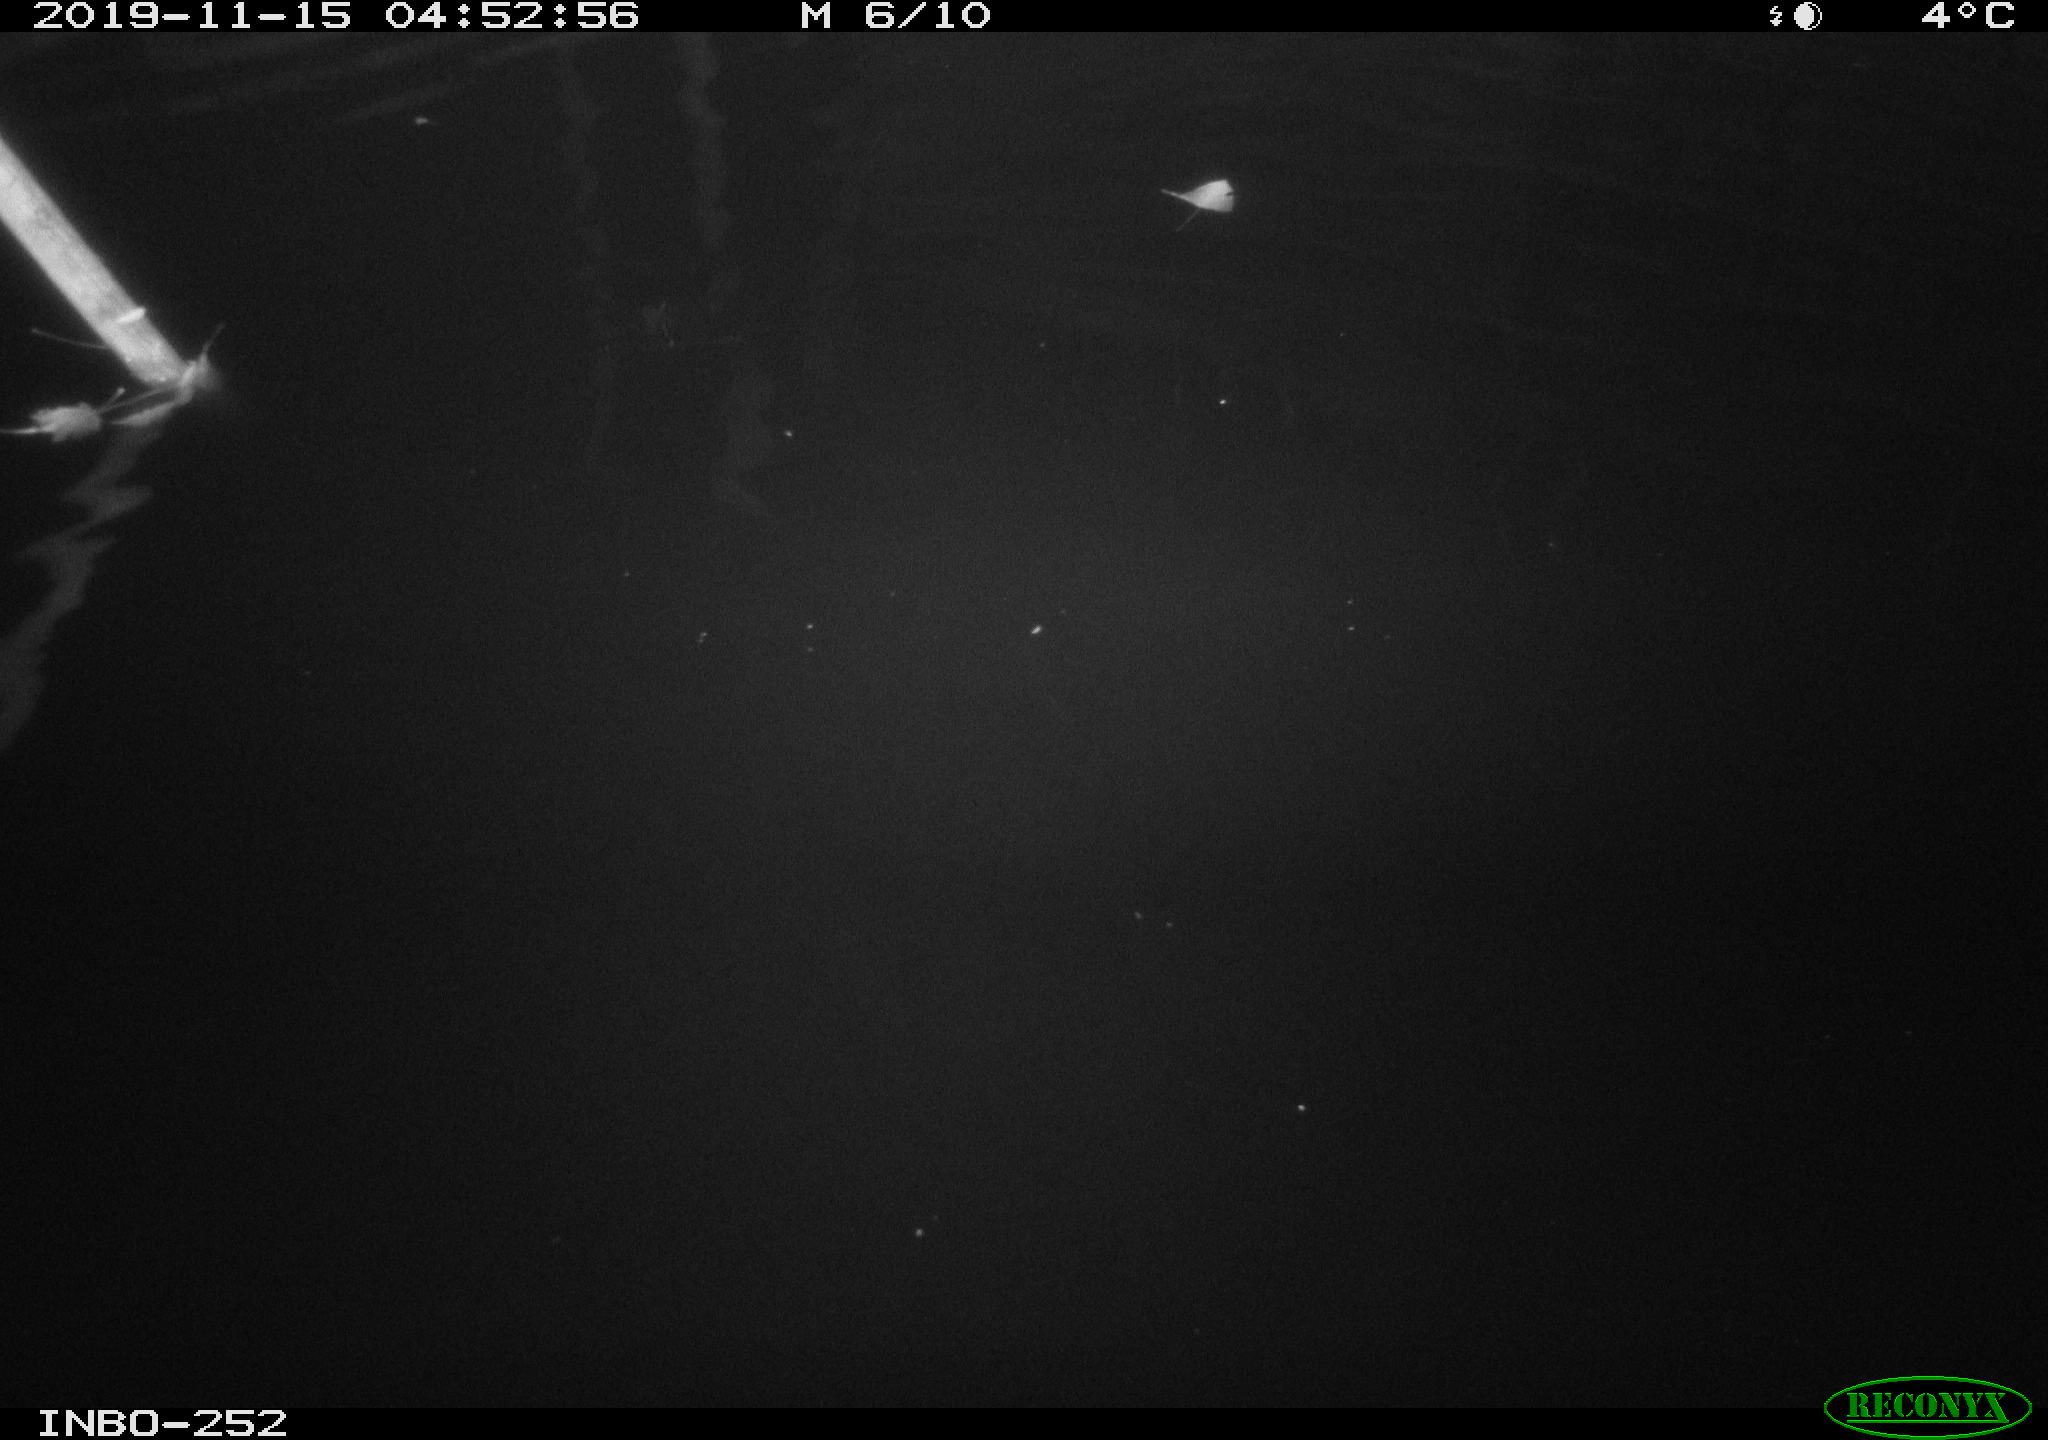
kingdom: Animalia
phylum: Chordata
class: Aves
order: Anseriformes
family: Anatidae
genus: Anas
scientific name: Anas platyrhynchos
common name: Mallard
